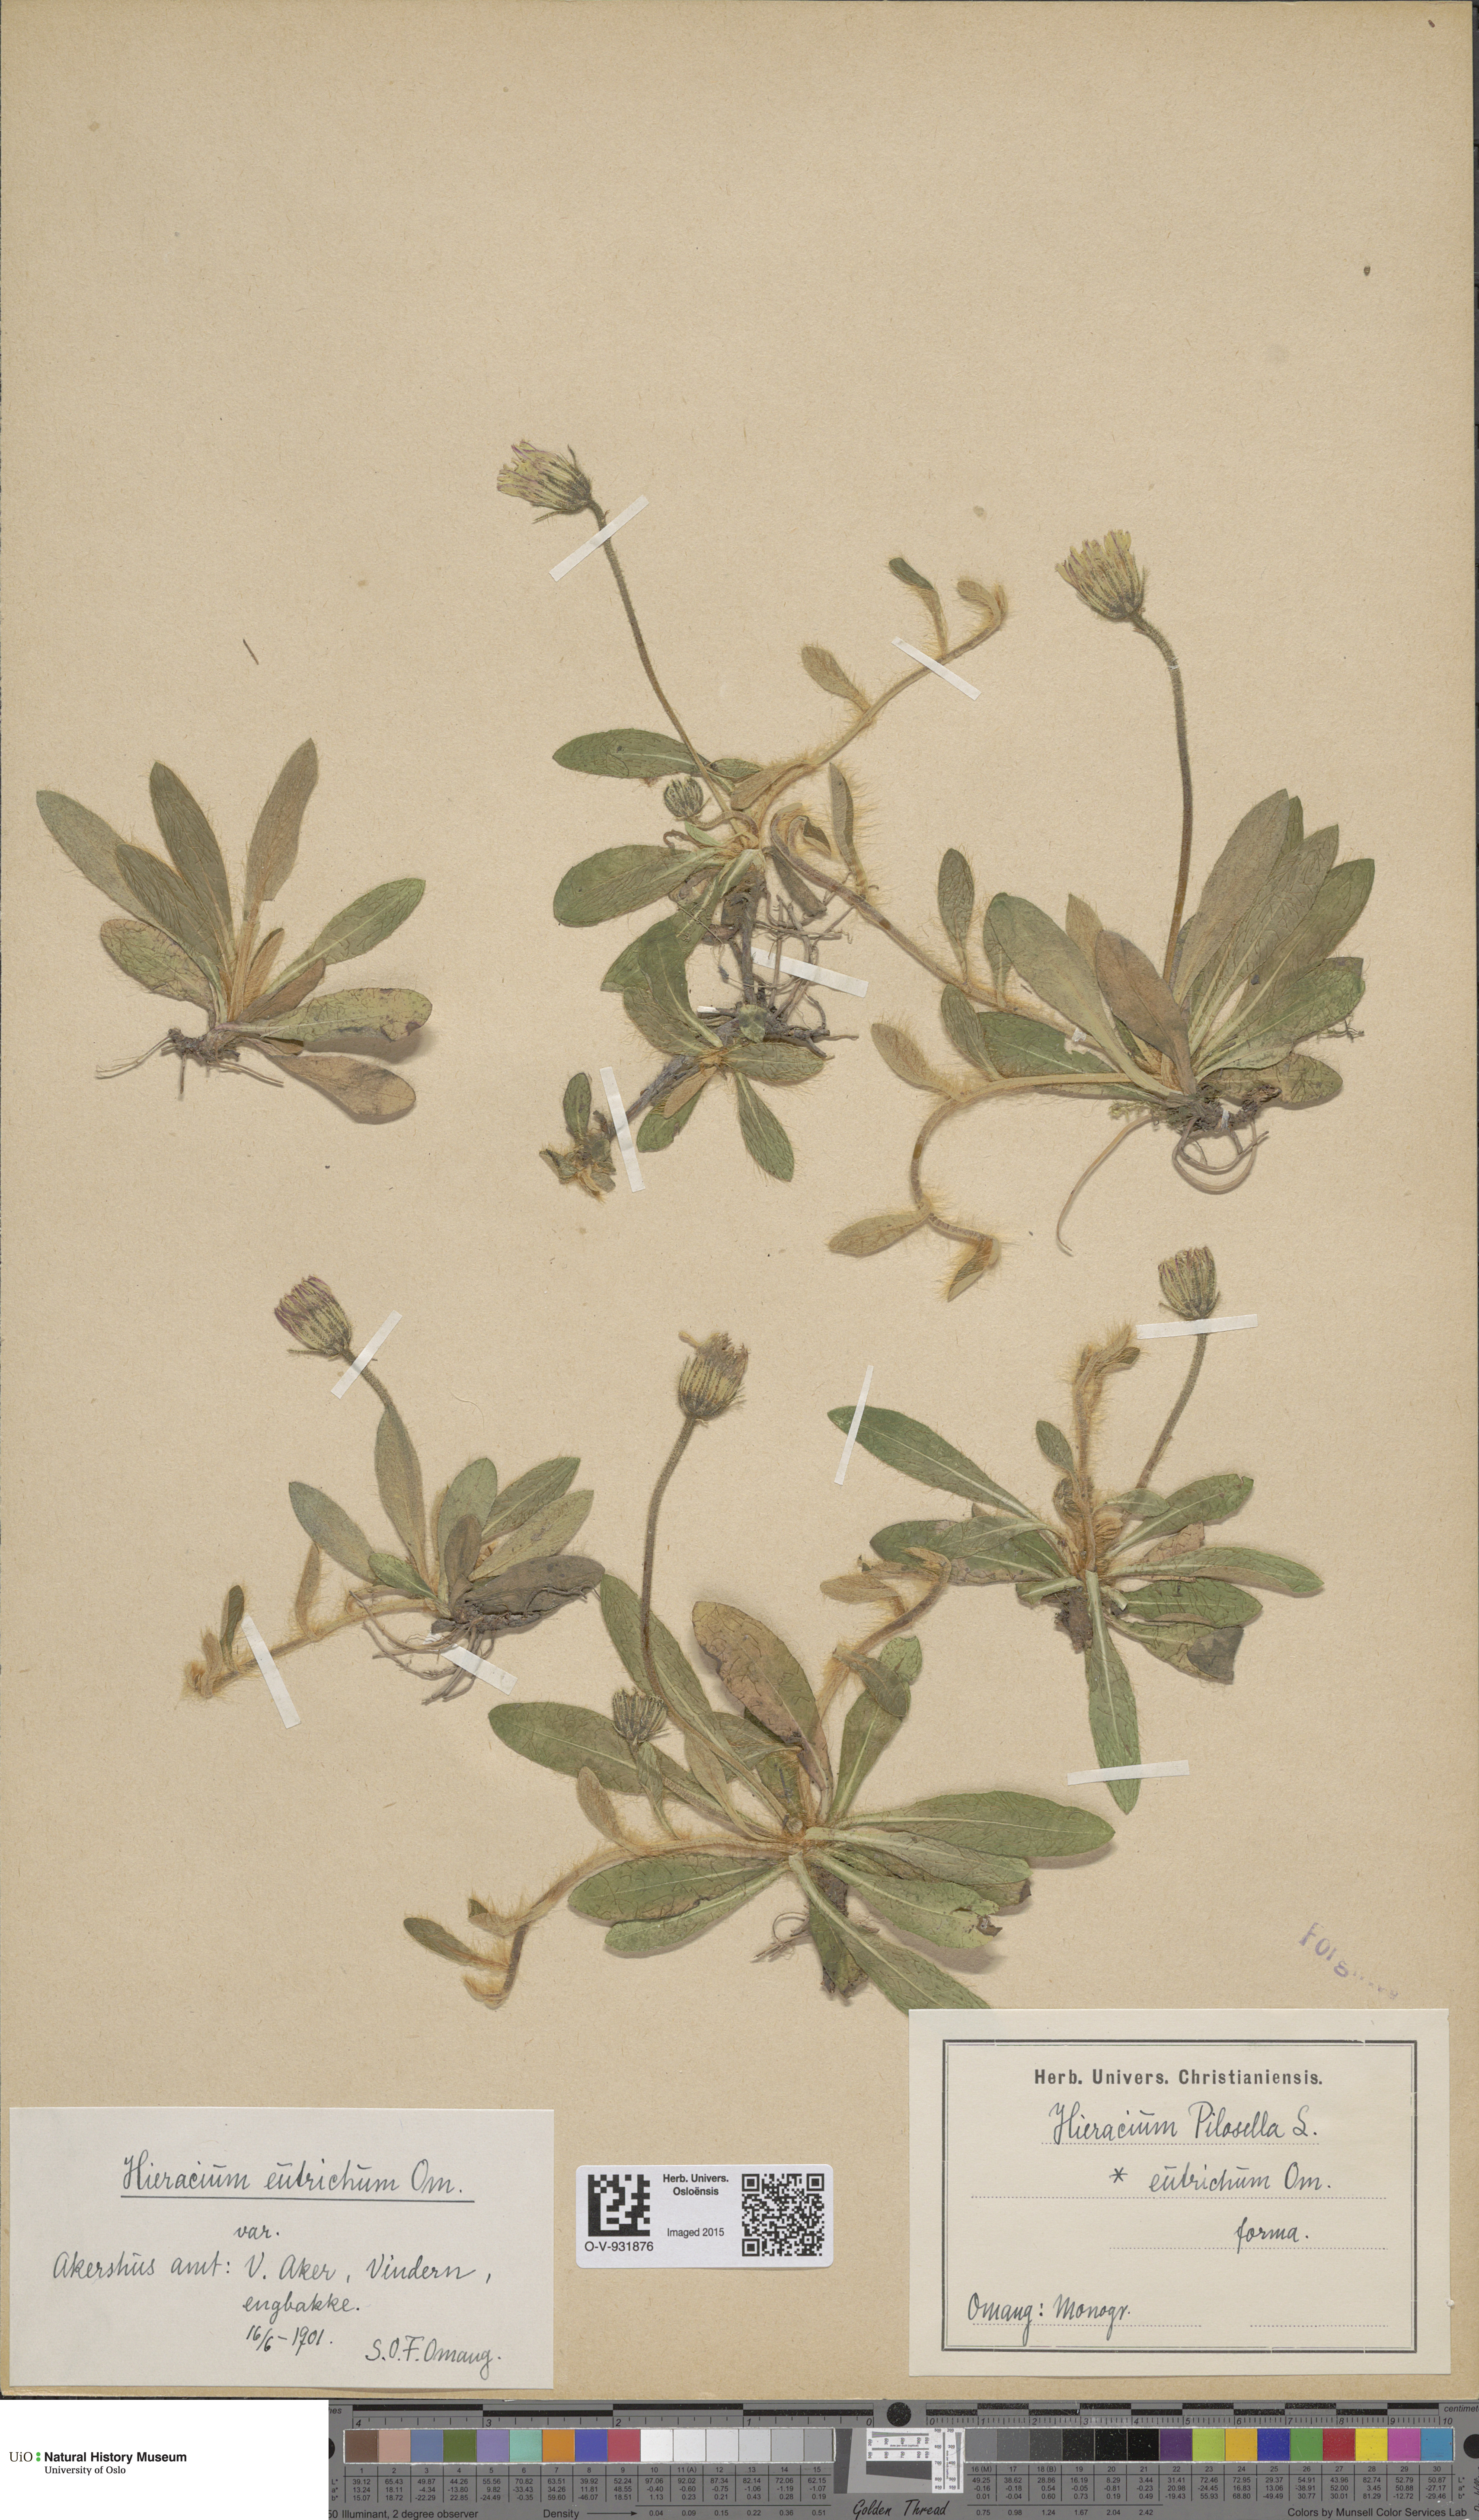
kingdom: Plantae
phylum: Tracheophyta
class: Magnoliopsida
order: Asterales
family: Asteraceae
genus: Pilosella
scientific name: Pilosella officinarum
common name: Mouse-ear hawkweed
